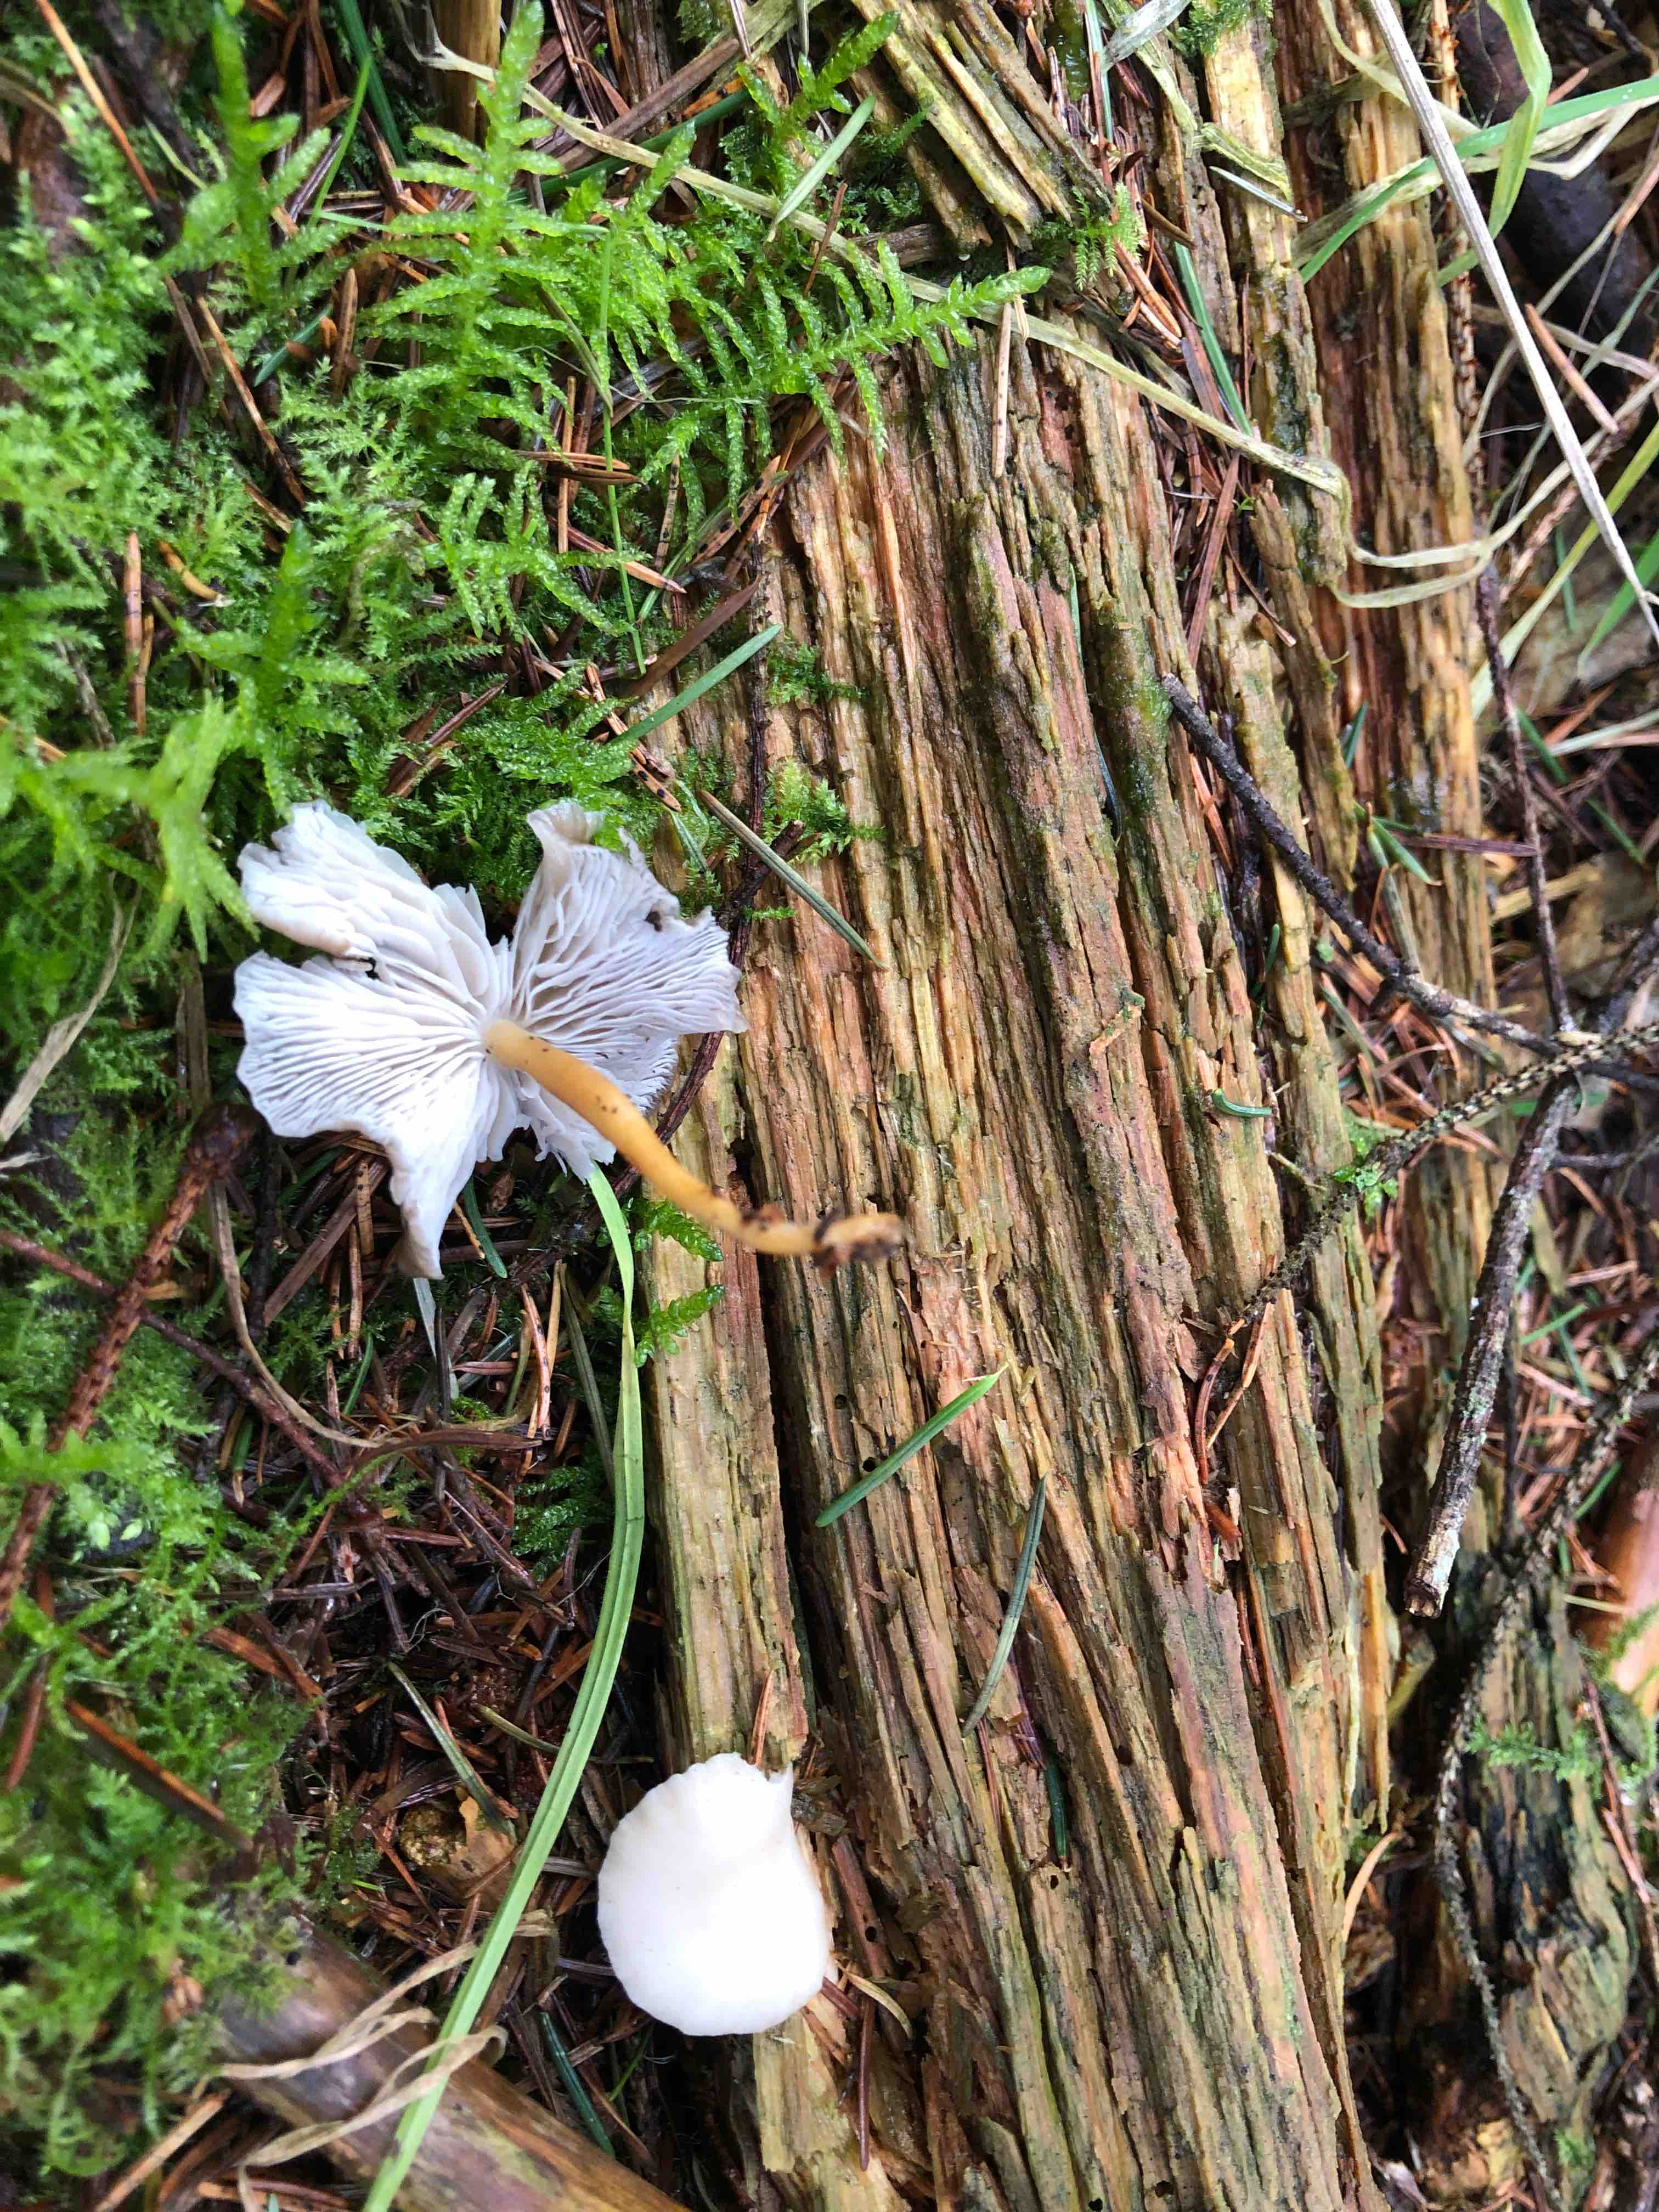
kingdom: Fungi
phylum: Basidiomycota
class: Agaricomycetes
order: Agaricales
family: Physalacriaceae
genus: Strobilurus
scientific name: Strobilurus esculentus
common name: gran-koglehat
